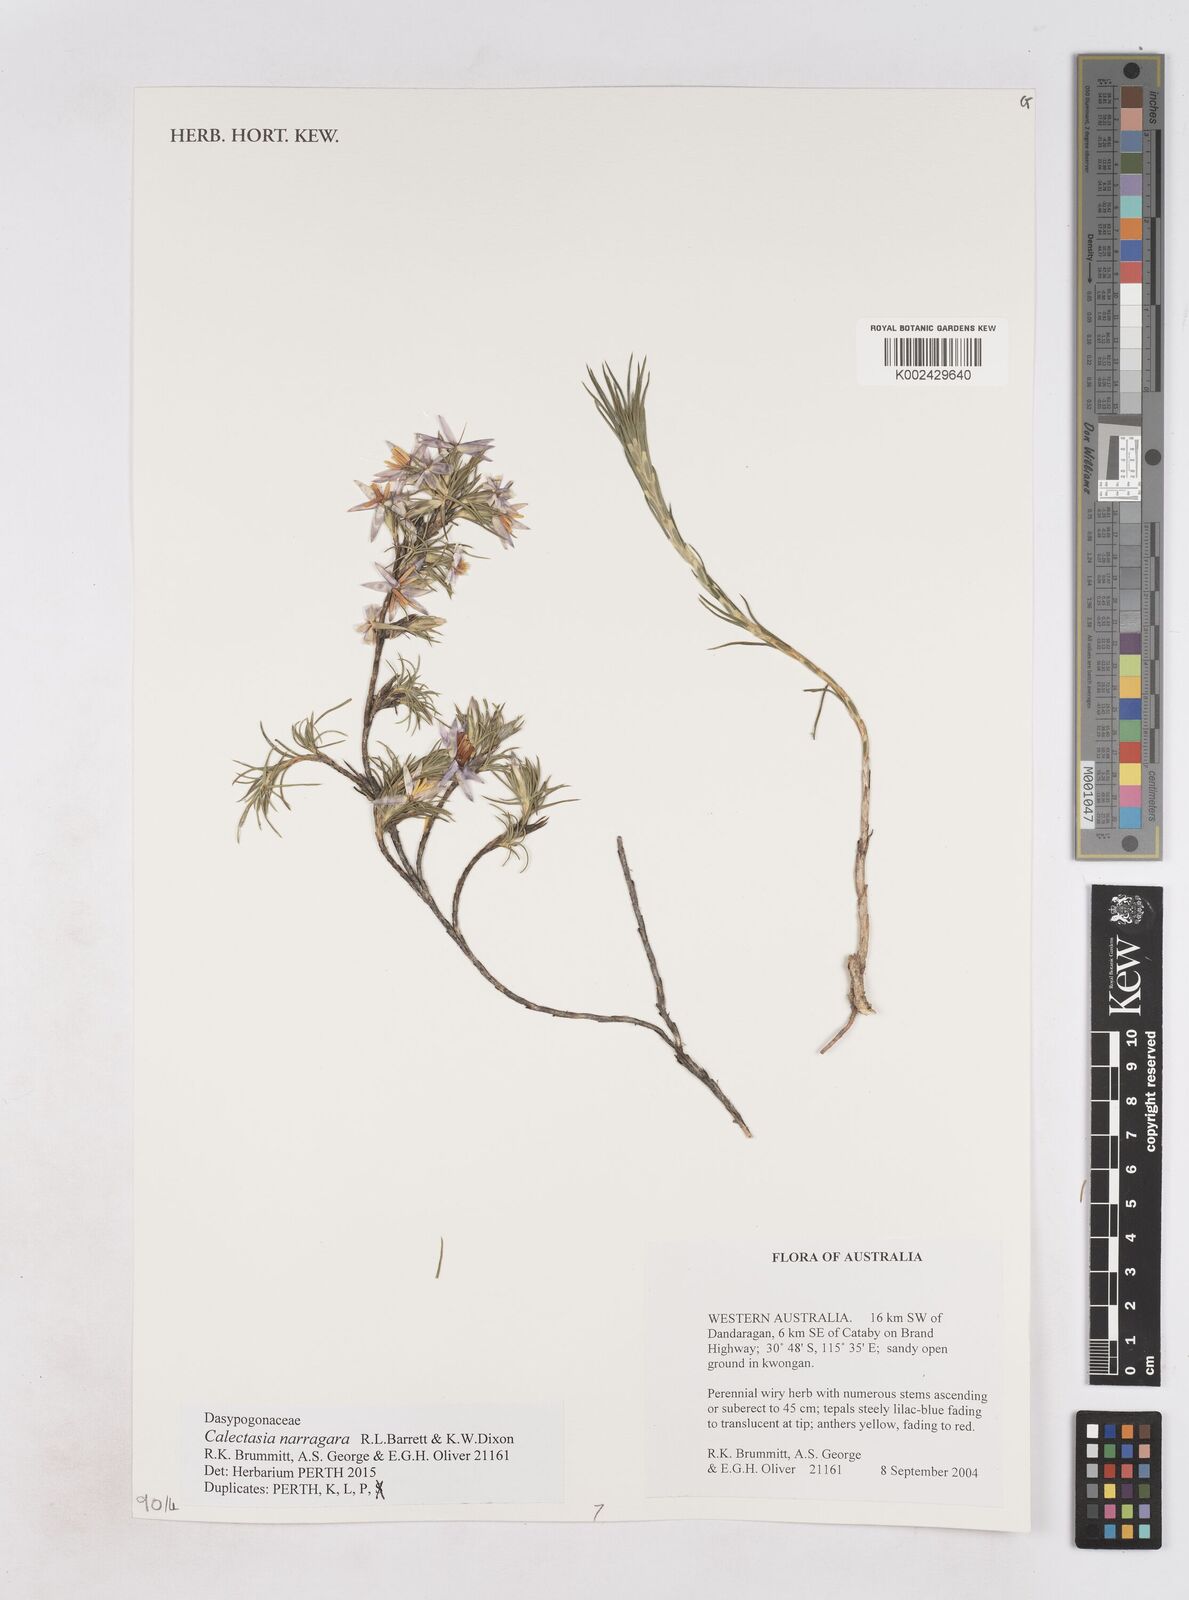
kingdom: Plantae
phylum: Tracheophyta
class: Liliopsida
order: Arecales
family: Dasypogonaceae
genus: Calectasia
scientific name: Calectasia narragara
